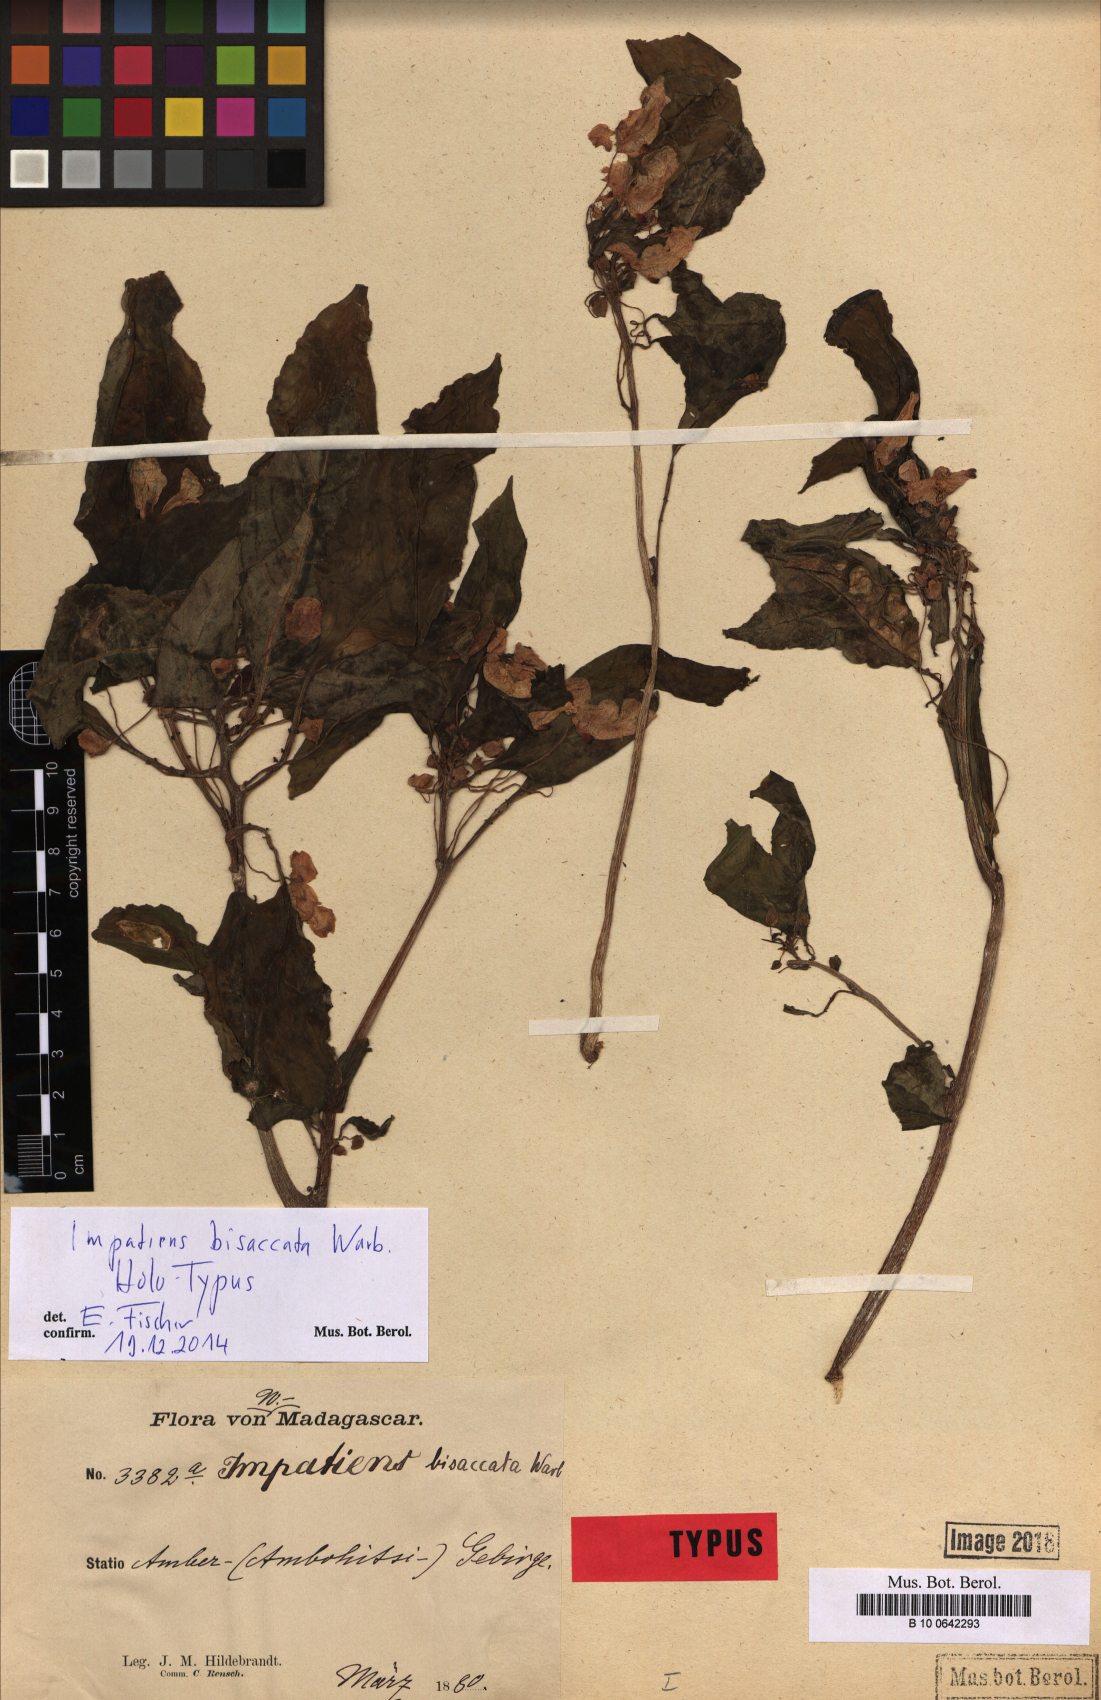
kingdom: Plantae
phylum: Tracheophyta
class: Magnoliopsida
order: Ericales
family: Balsaminaceae
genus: Impatiens
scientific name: Impatiens bisaccata
